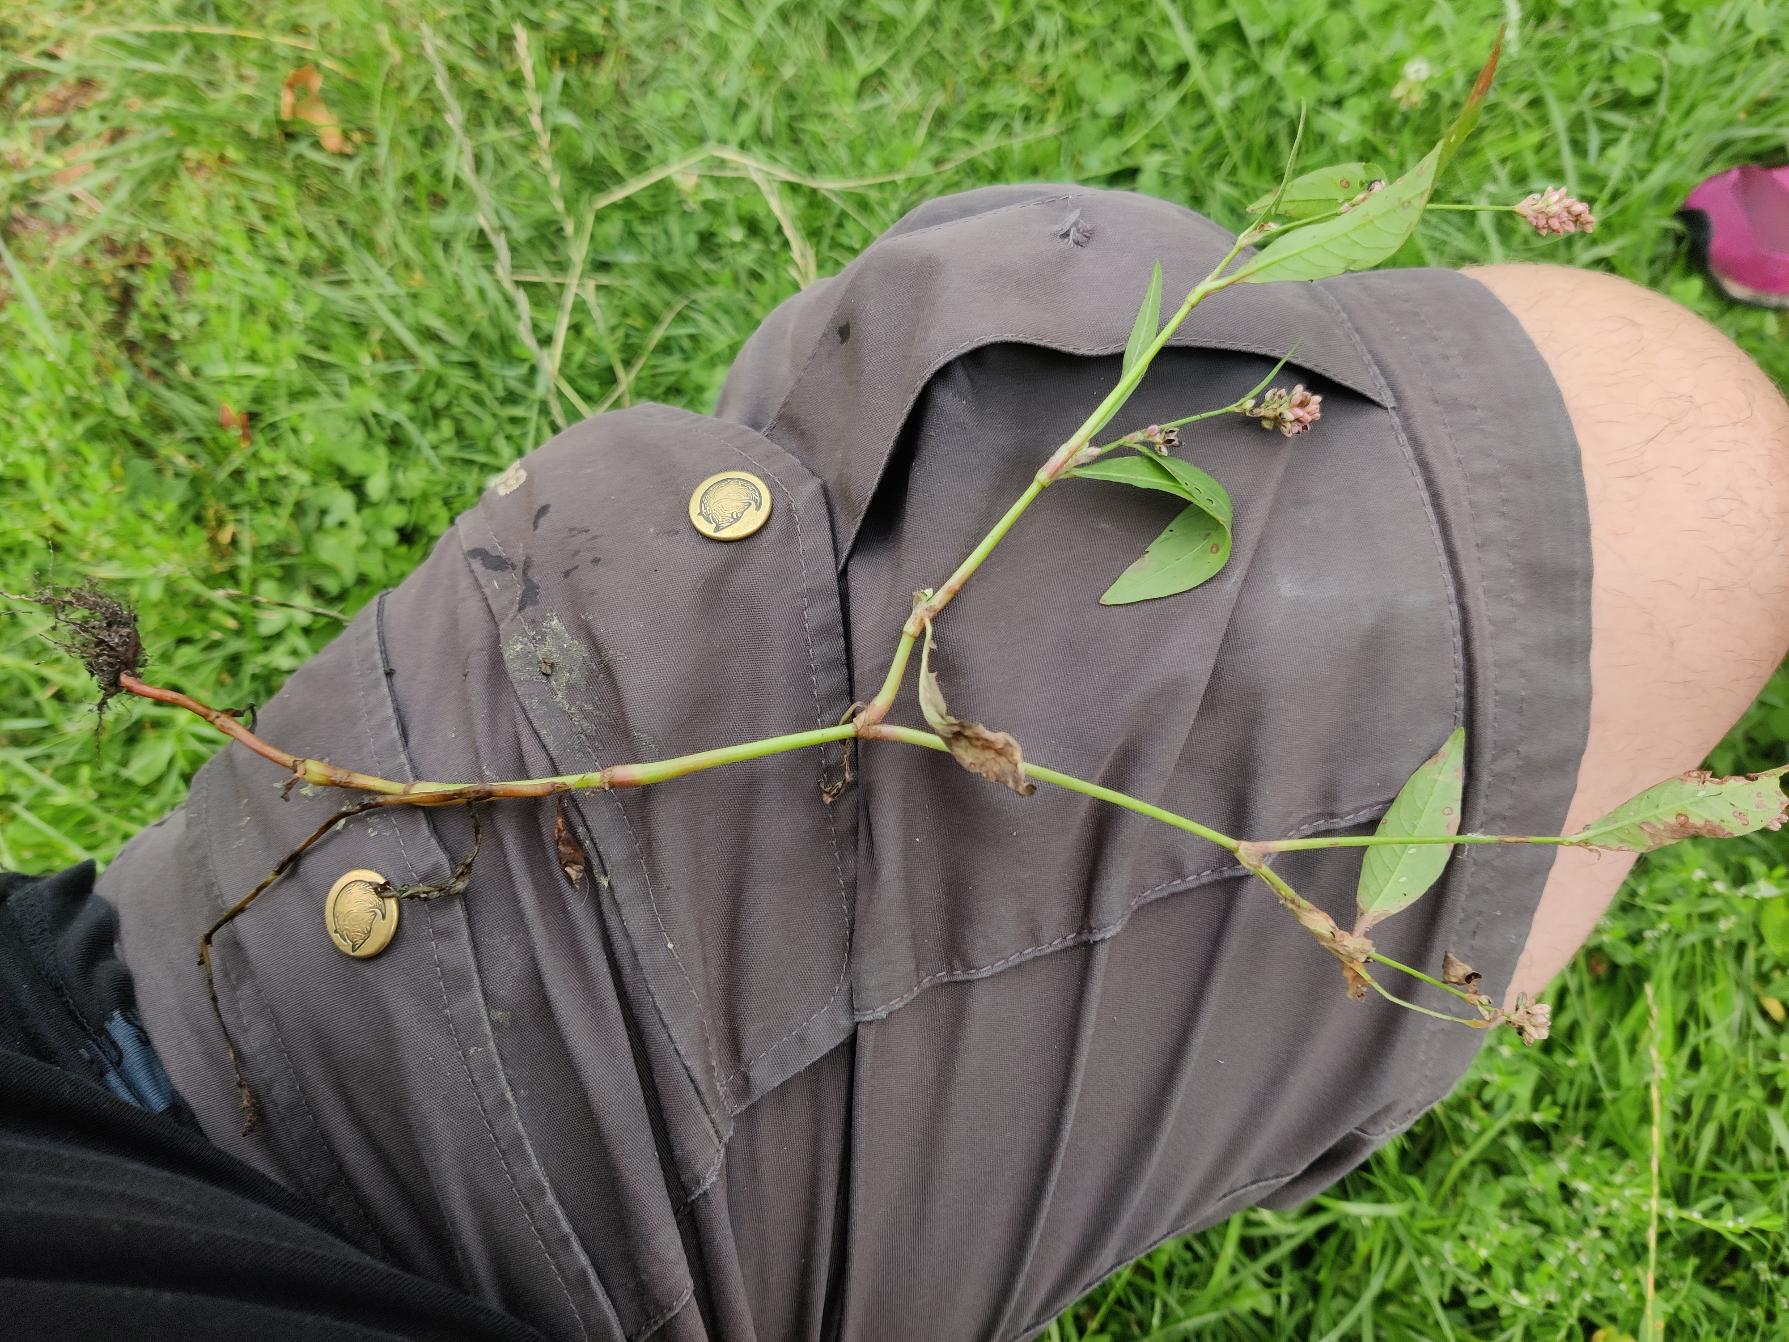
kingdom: Plantae
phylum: Tracheophyta
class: Magnoliopsida
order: Caryophyllales
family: Polygonaceae
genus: Persicaria
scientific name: Persicaria maculosa
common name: Fersken-pileurt
